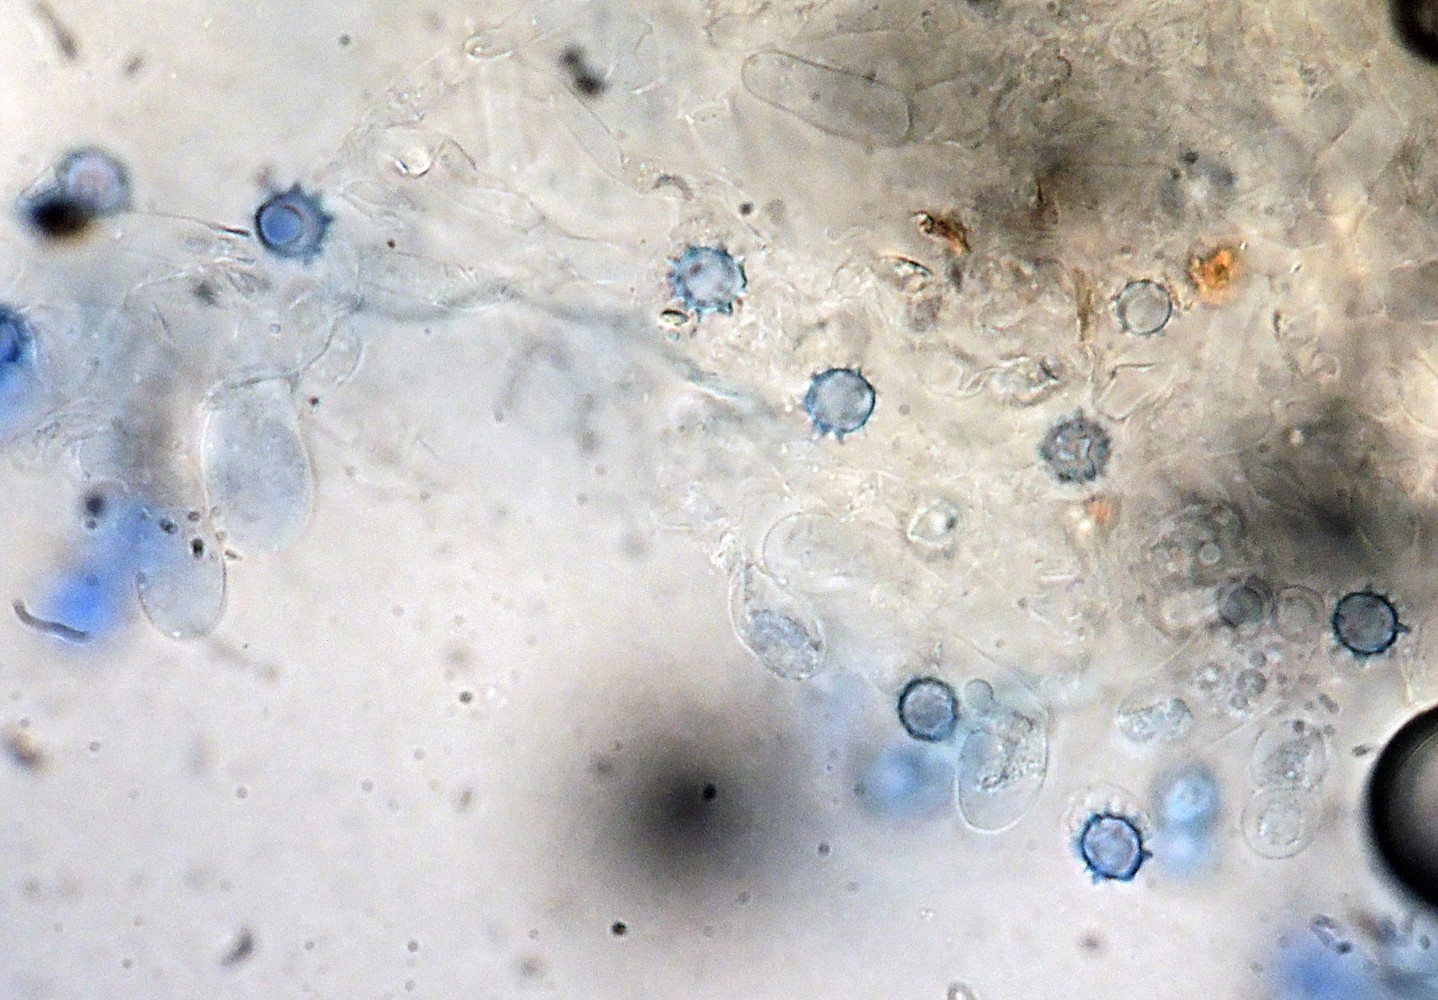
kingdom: Fungi
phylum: Basidiomycota
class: Agaricomycetes
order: Agaricales
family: Stephanosporaceae
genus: Lindtneria
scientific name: Lindtneria trachyspora
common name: labyrint-citrushinde
